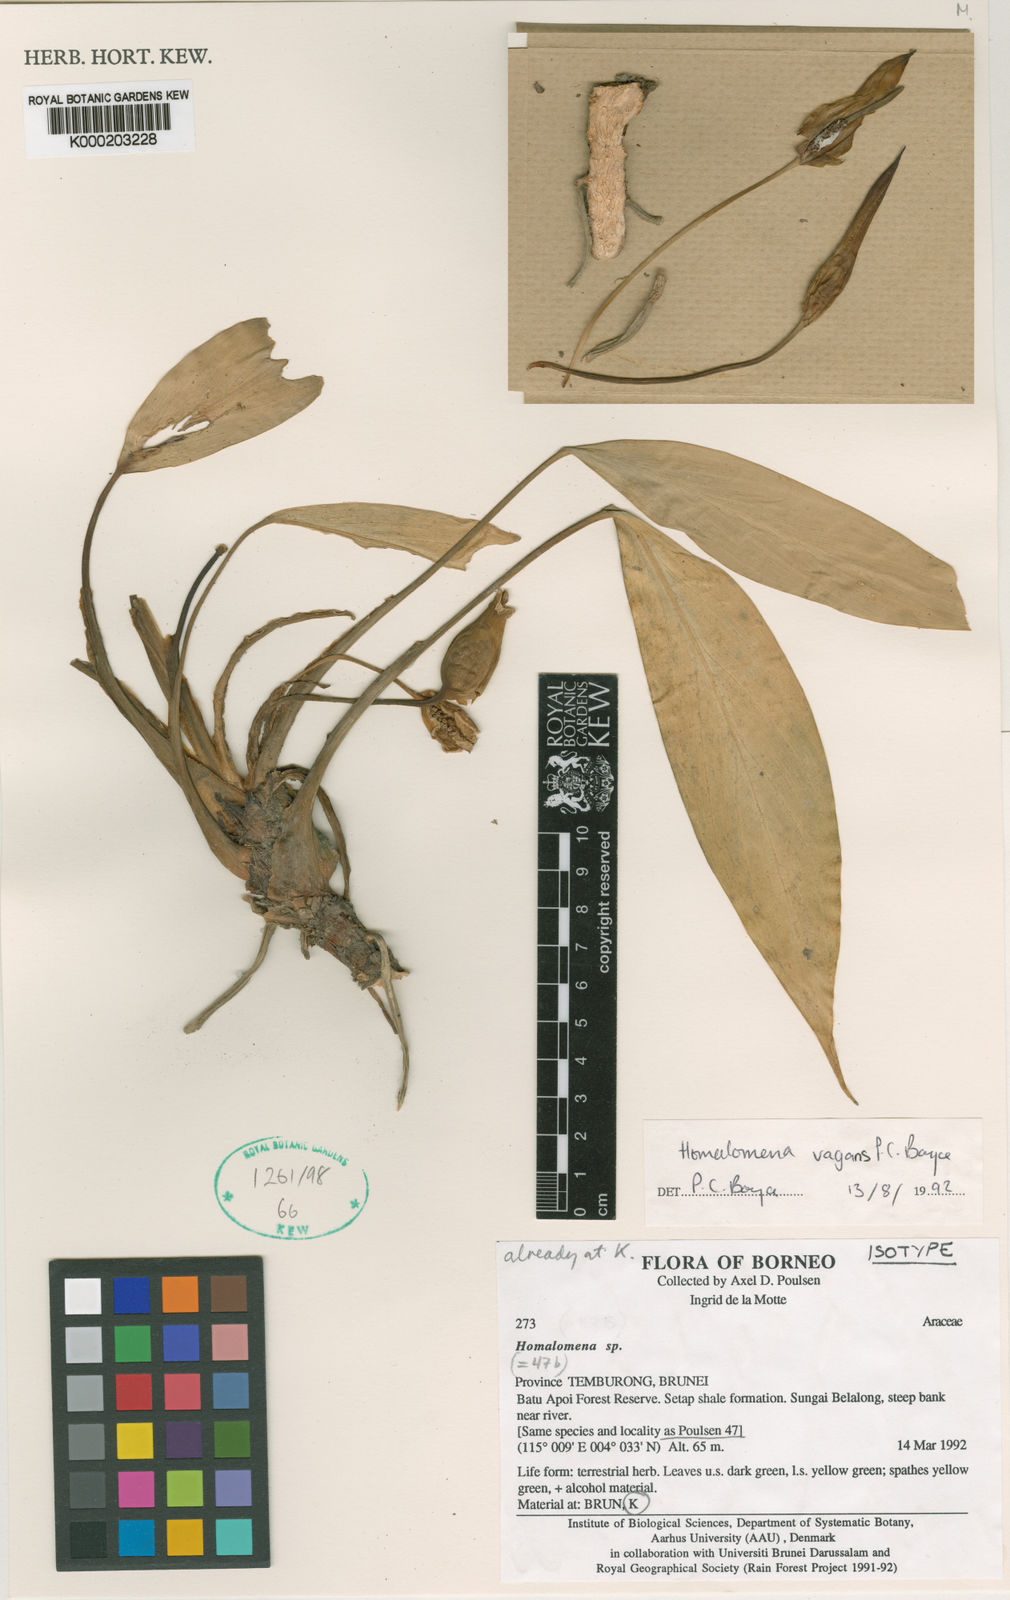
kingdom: Plantae
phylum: Tracheophyta
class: Liliopsida
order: Alismatales
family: Araceae
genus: Homalomena
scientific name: Homalomena vagans
